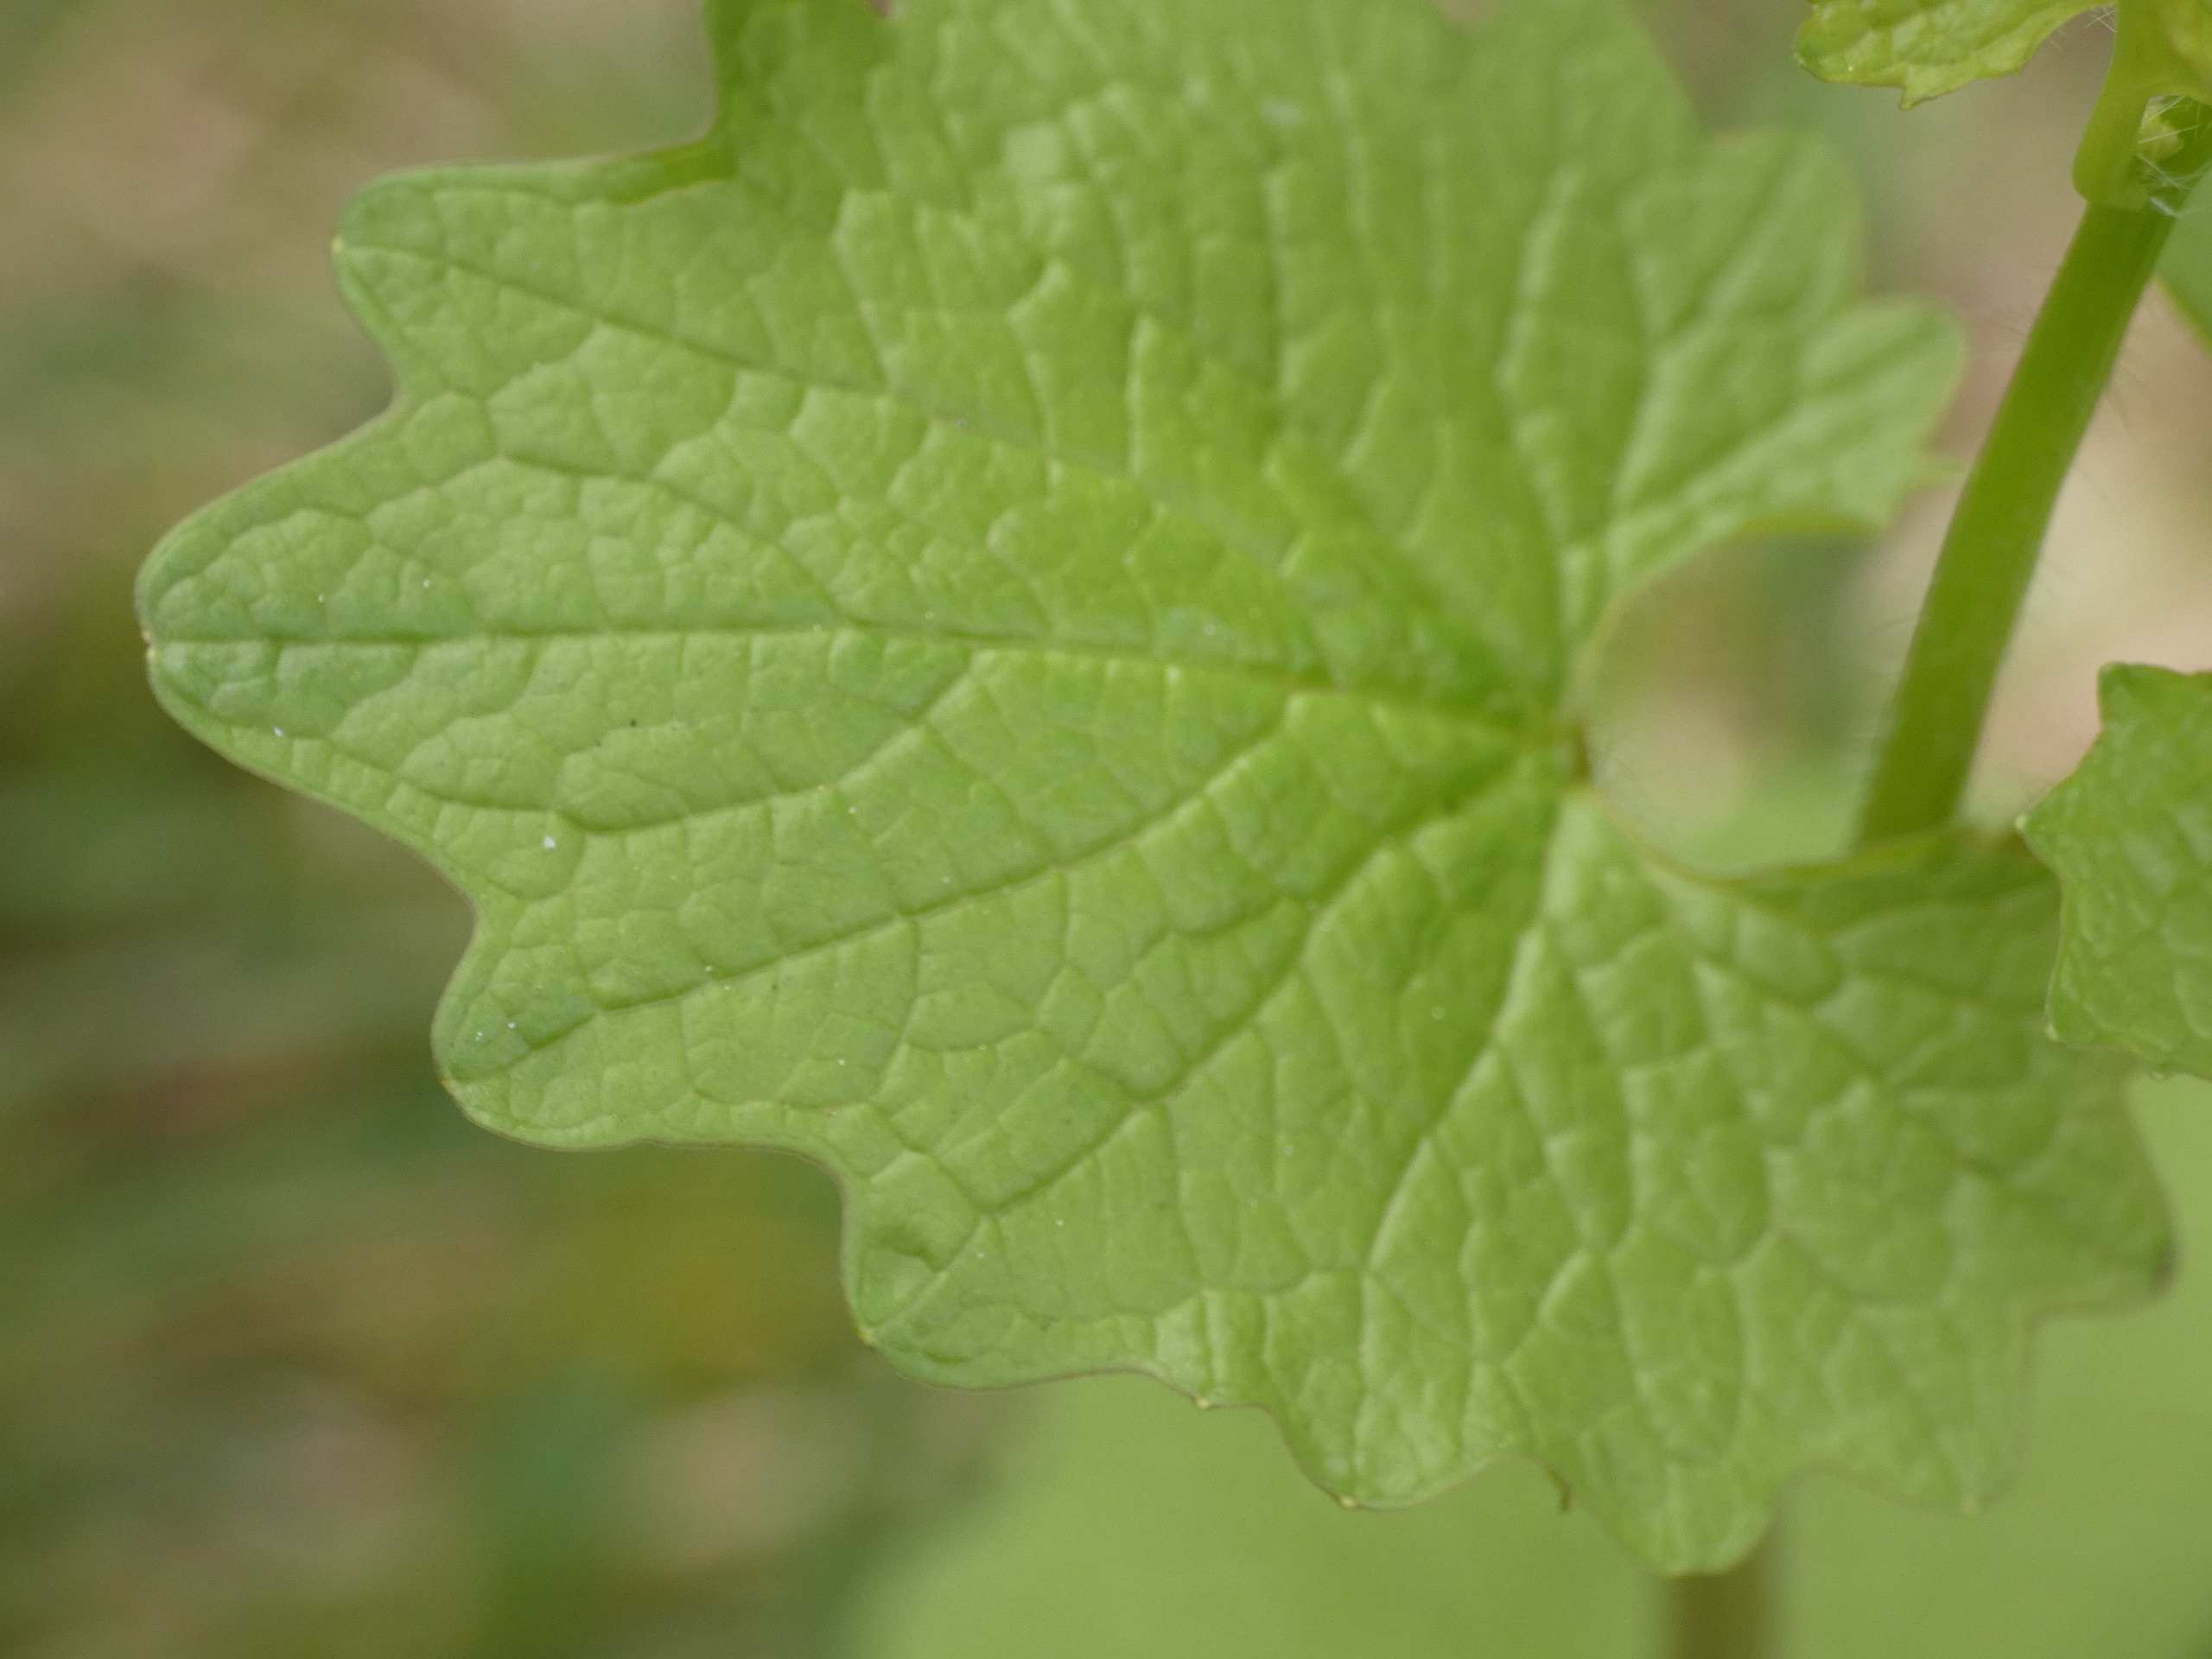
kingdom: Plantae
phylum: Tracheophyta
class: Magnoliopsida
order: Brassicales
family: Brassicaceae
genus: Alliaria
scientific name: Alliaria petiolata
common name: Løgkarse
